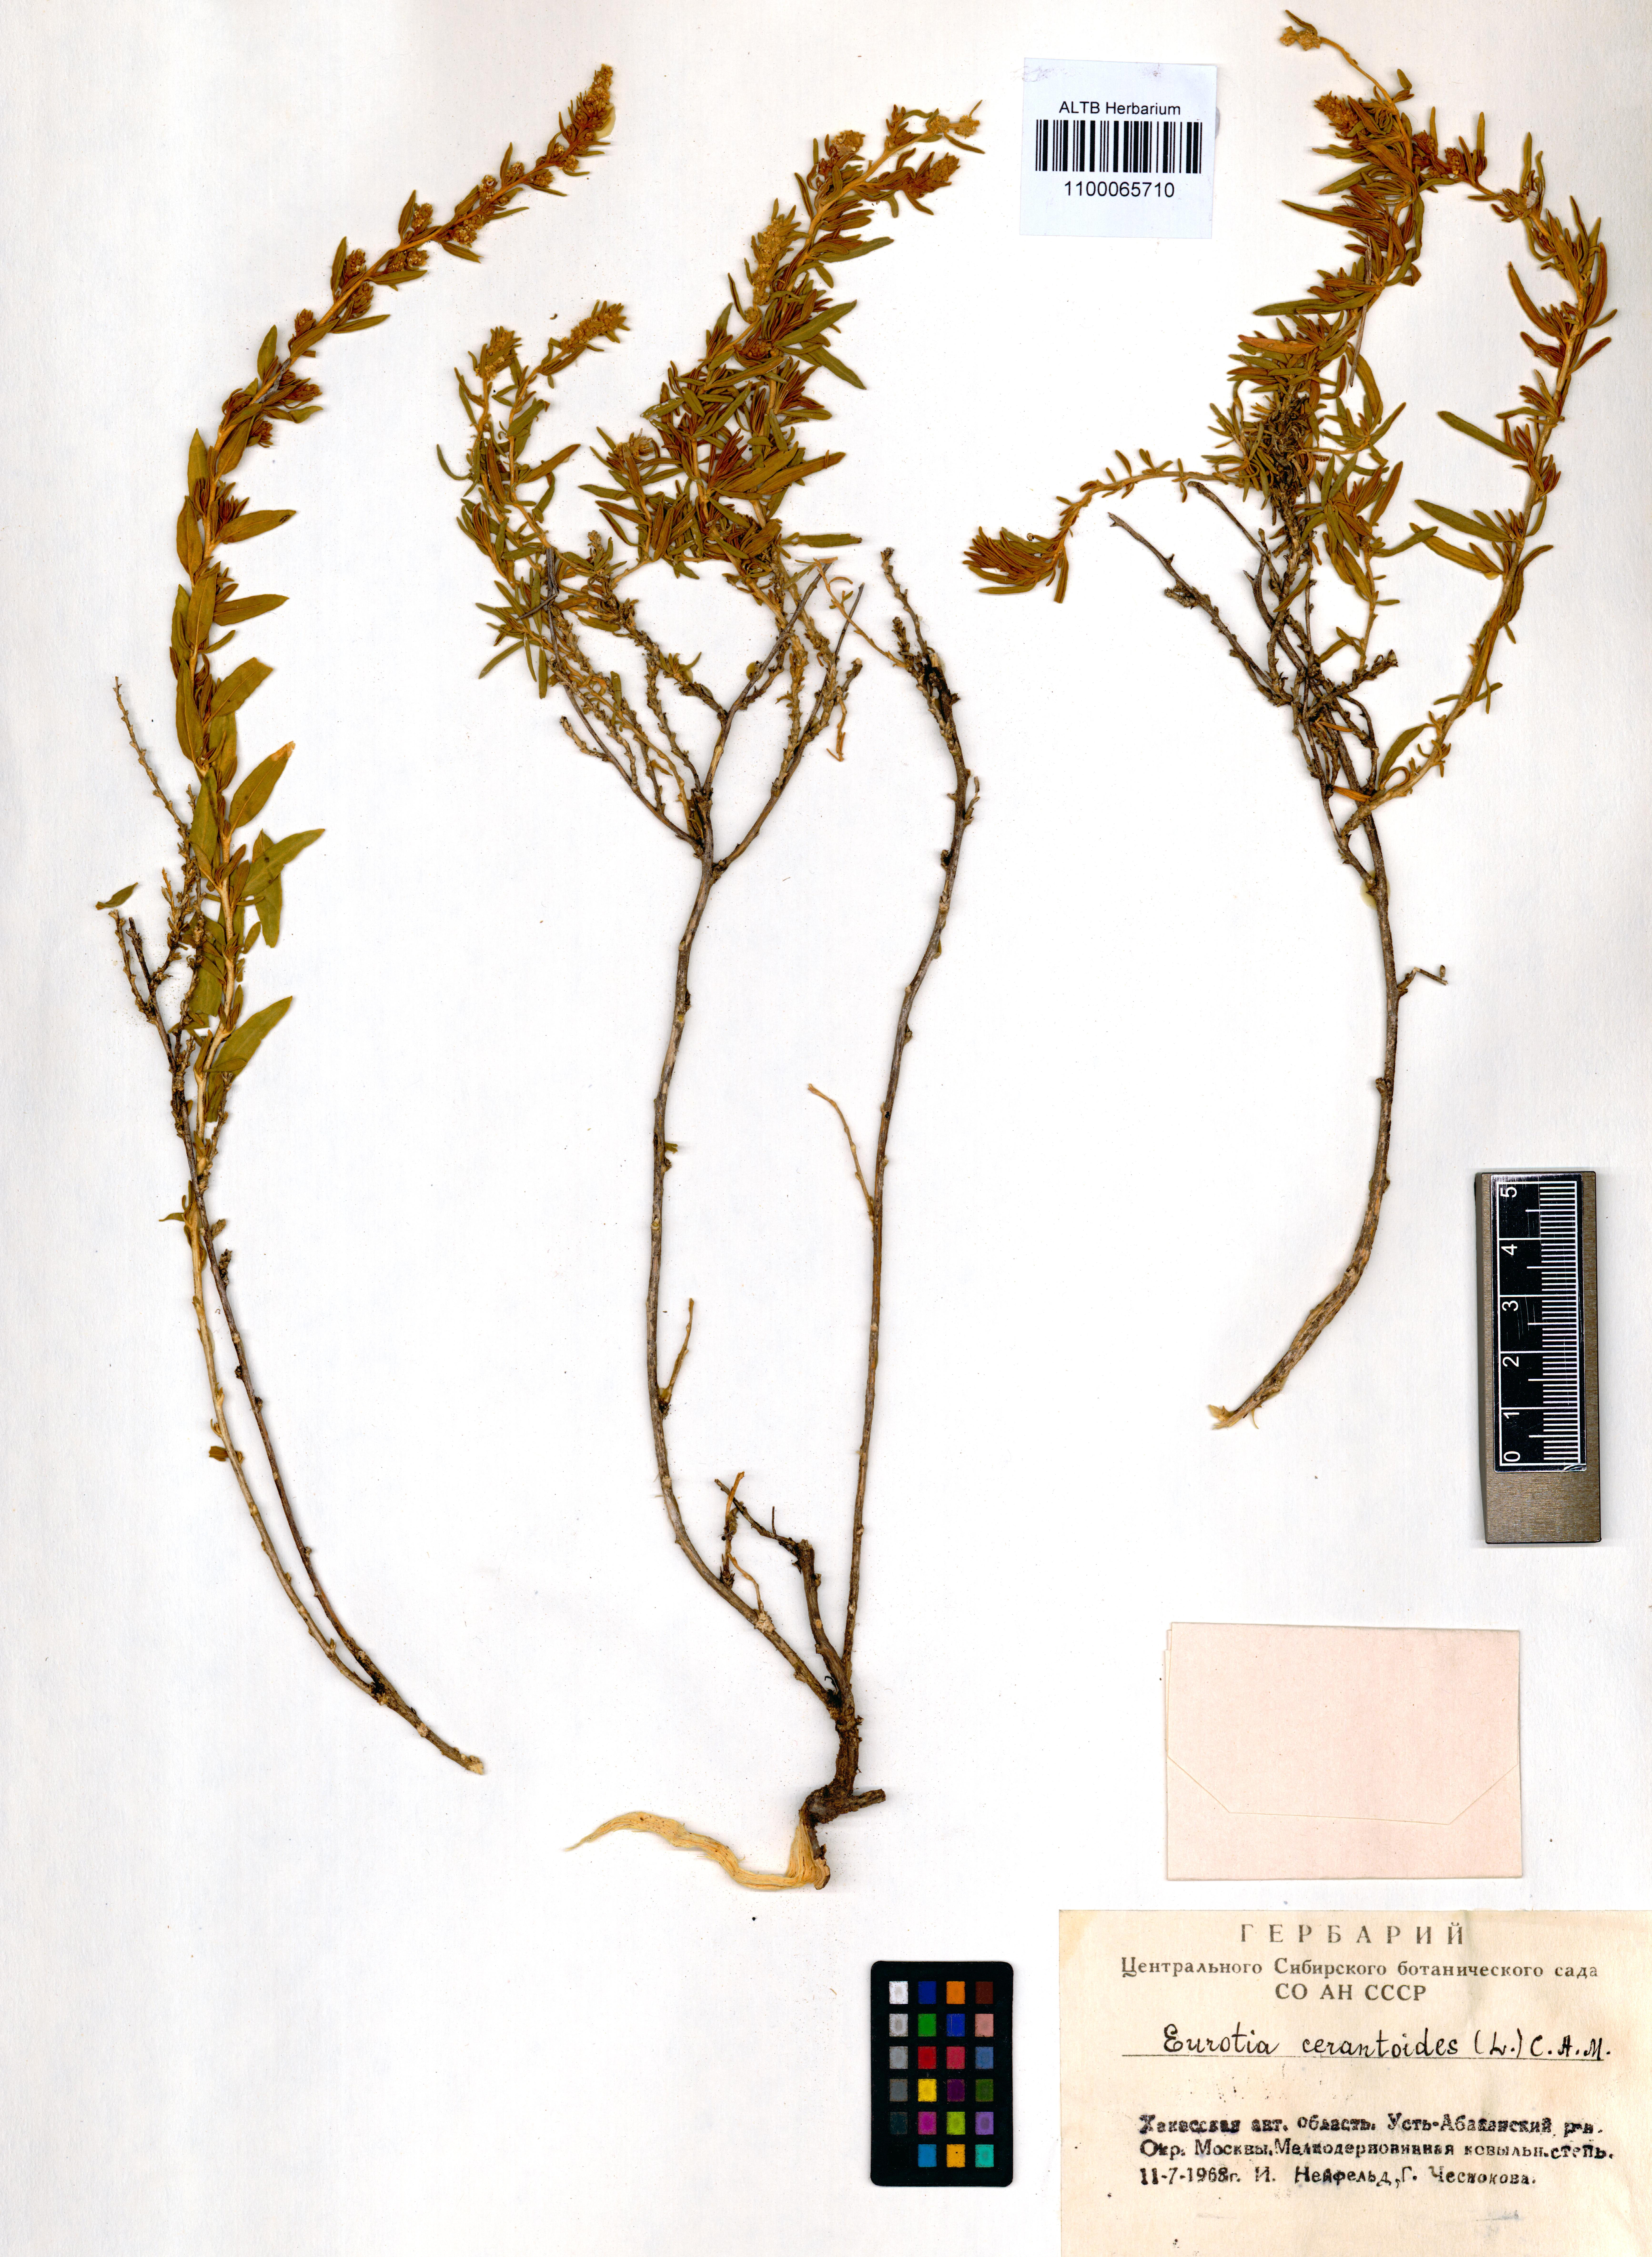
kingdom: Plantae
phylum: Tracheophyta
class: Magnoliopsida
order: Caryophyllales
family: Amaranthaceae
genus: Krascheninnikovia
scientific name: Krascheninnikovia ceratoides
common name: Pamirian winterfat
